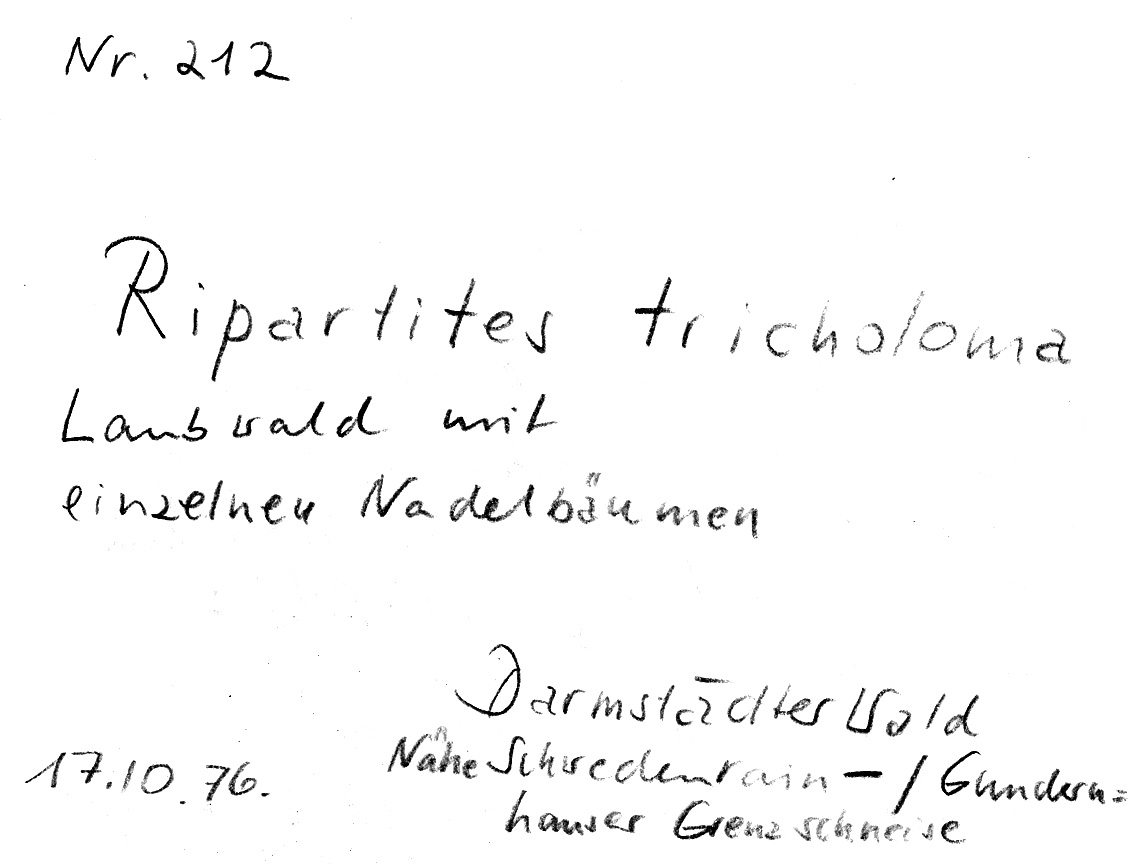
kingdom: Fungi
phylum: Basidiomycota
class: Agaricomycetes
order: Agaricales
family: Tricholomataceae
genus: Ripartites
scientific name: Ripartites tricholoma
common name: Bearded seamine
